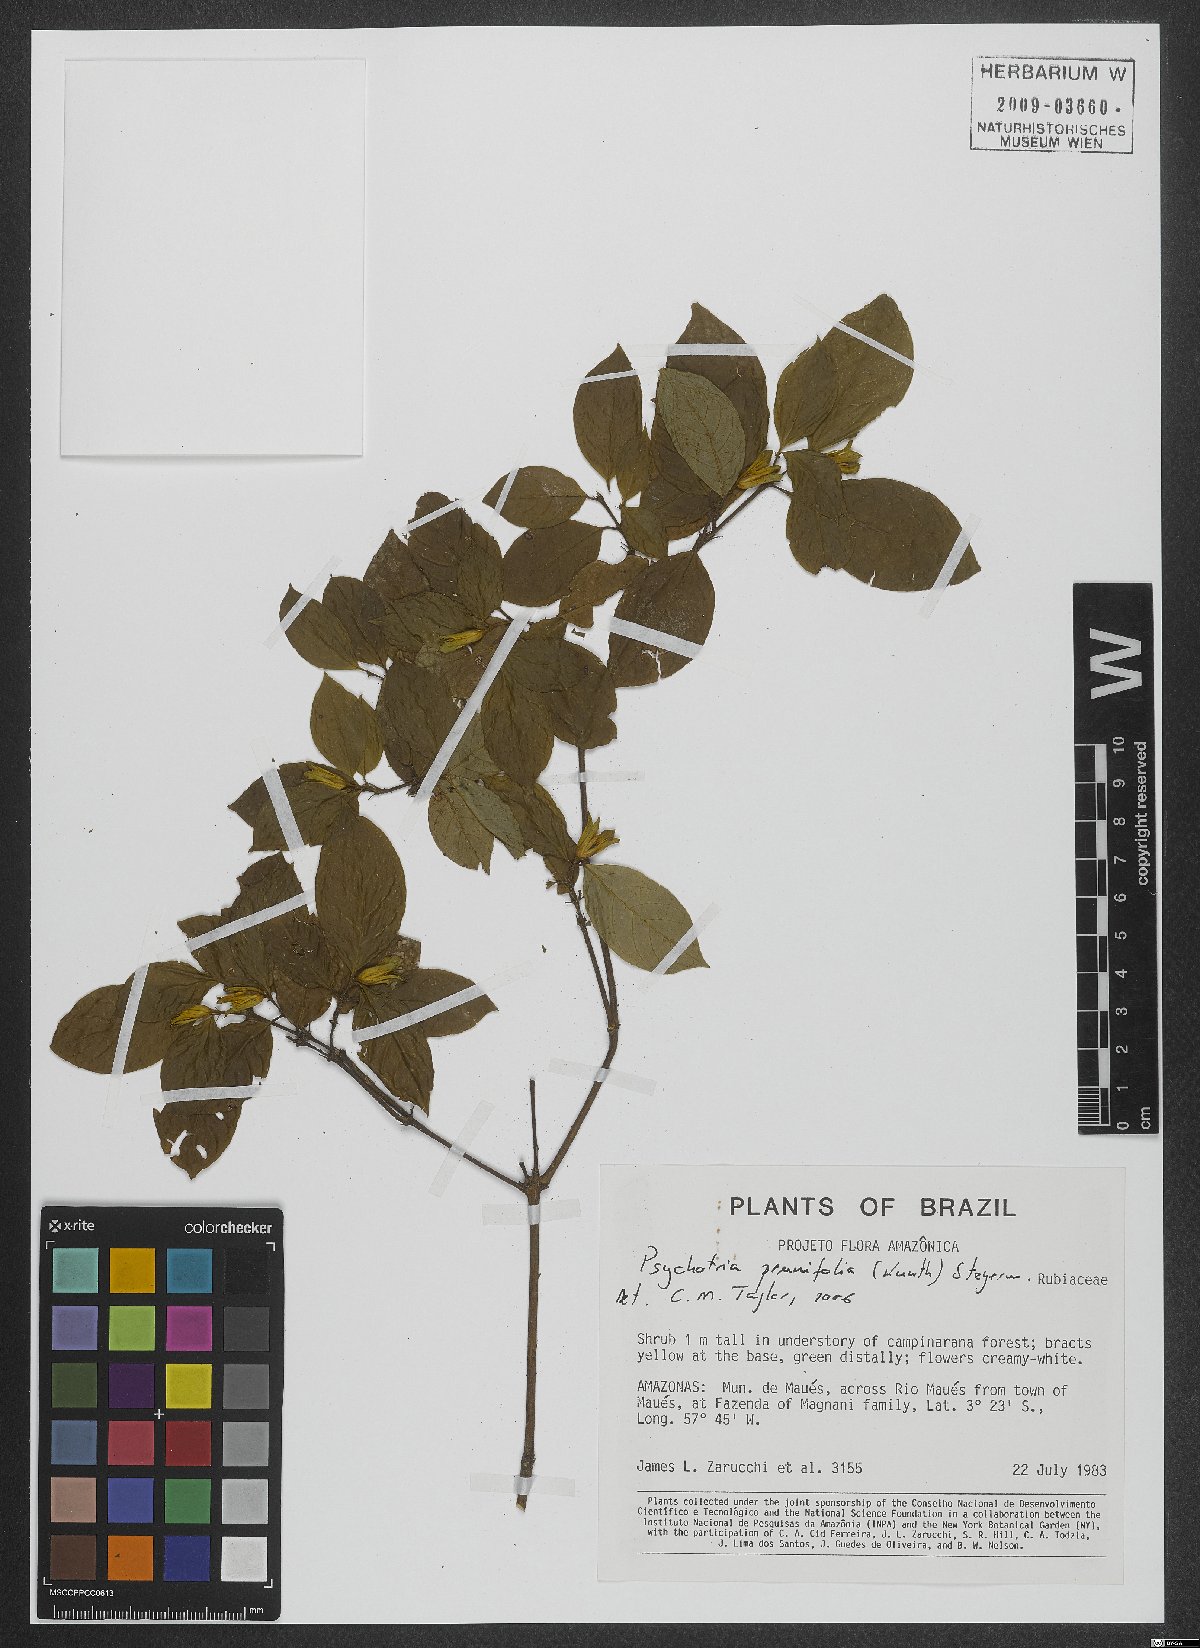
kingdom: Plantae
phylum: Tracheophyta
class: Magnoliopsida
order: Gentianales
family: Rubiaceae
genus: Palicourea
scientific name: Palicourea prunifolia
